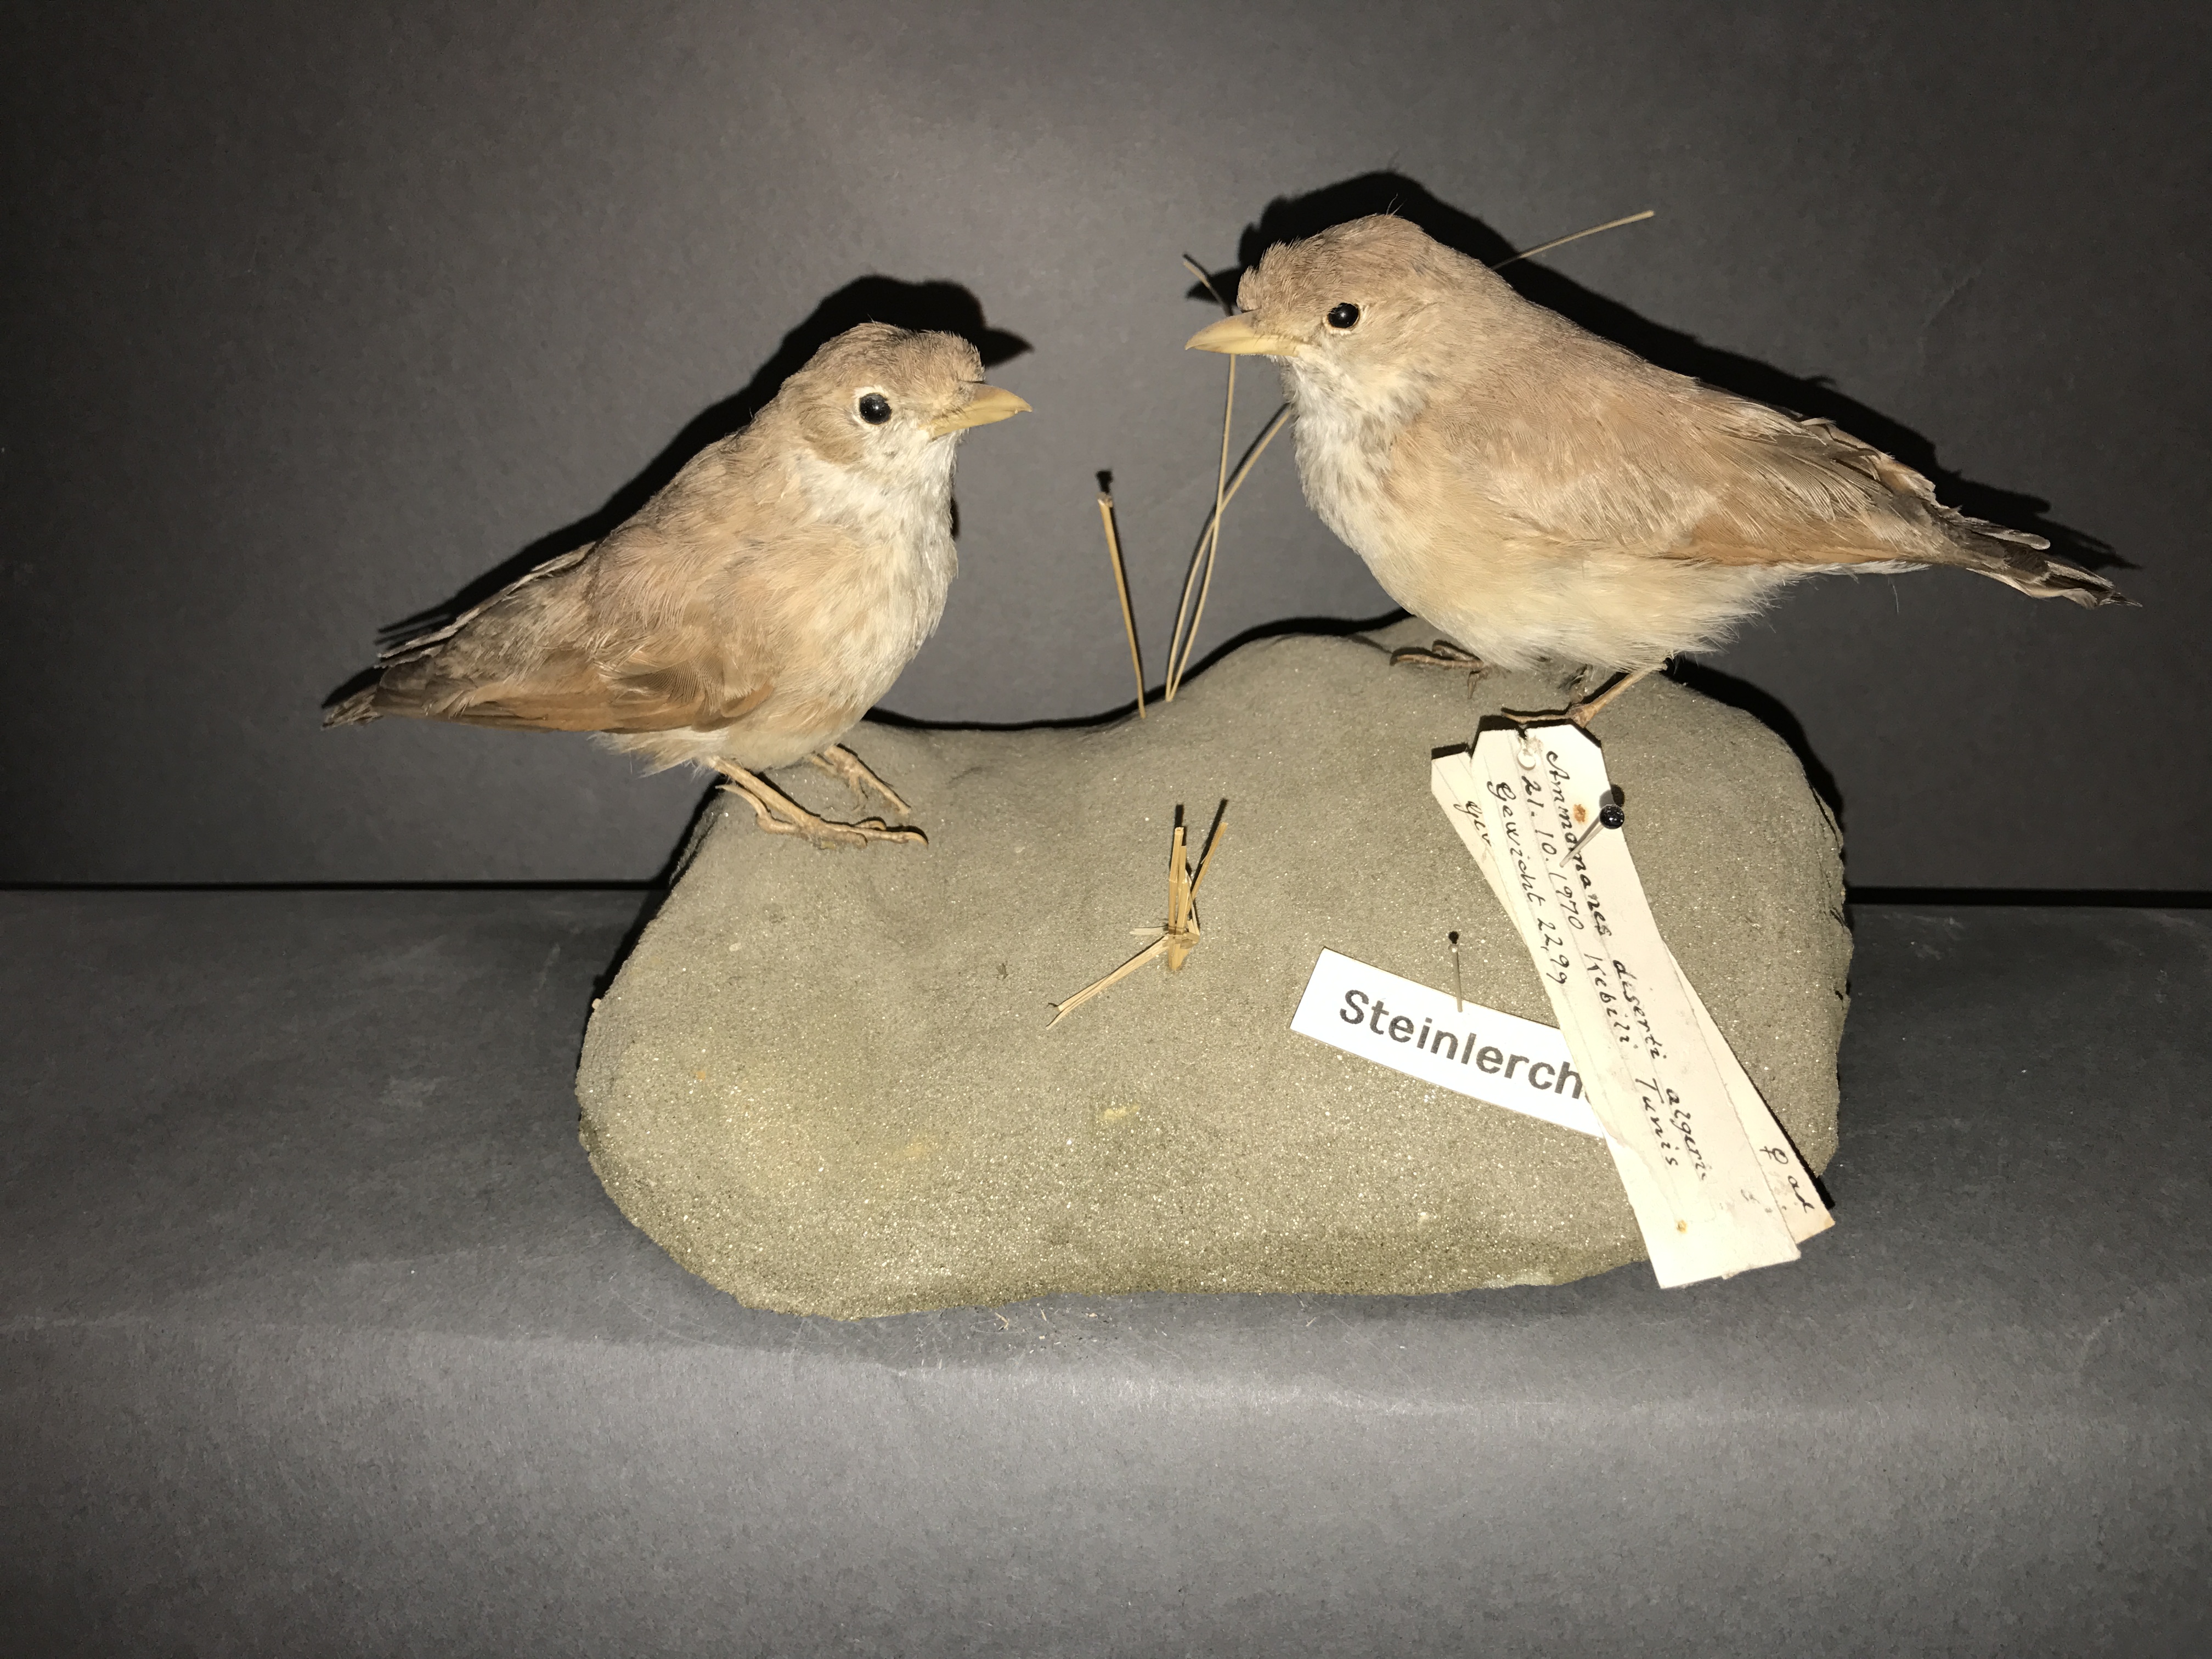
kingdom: Animalia
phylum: Chordata
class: Aves
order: Passeriformes
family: Alaudidae
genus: Ammomanes
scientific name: Ammomanes deserti
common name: Desert lark
